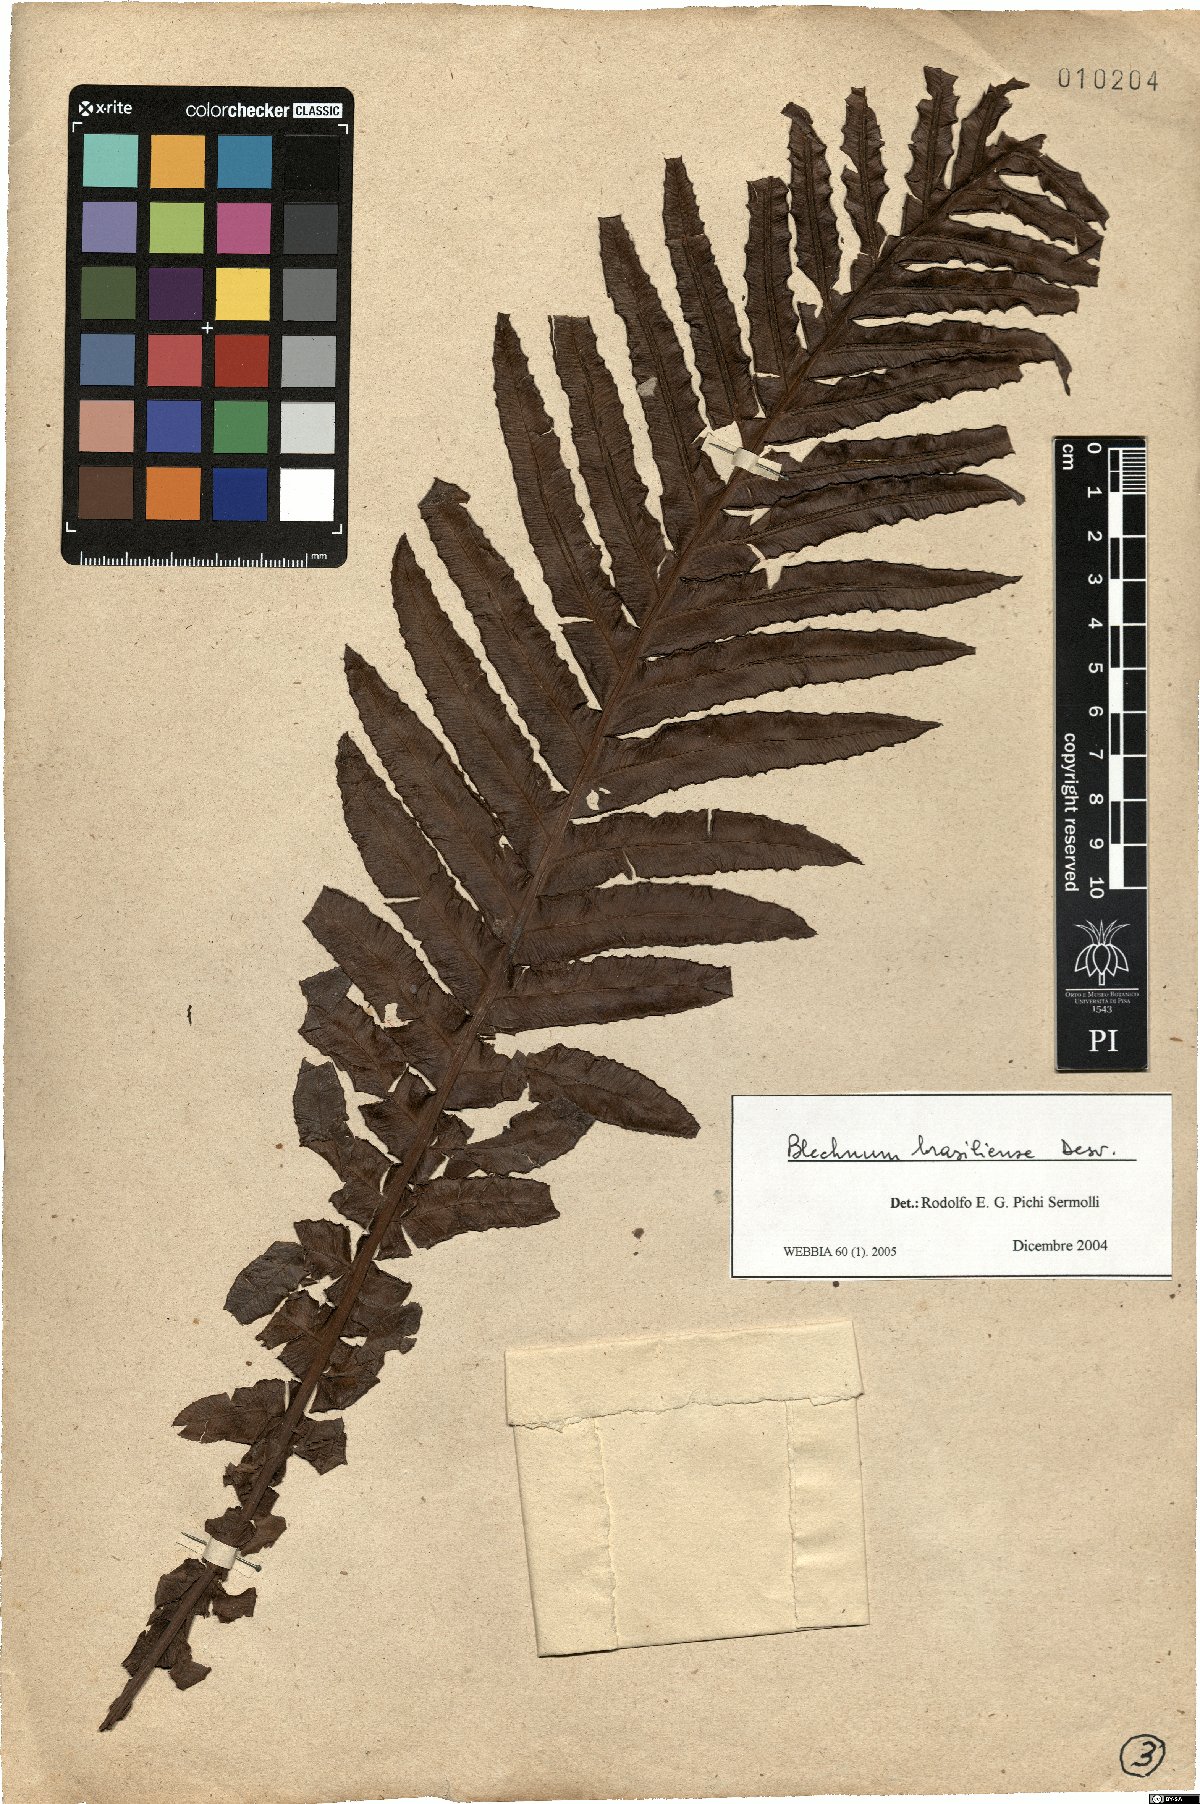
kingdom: Plantae
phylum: Tracheophyta
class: Polypodiopsida
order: Polypodiales
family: Blechnaceae
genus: Neoblechnum
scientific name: Neoblechnum brasiliense
